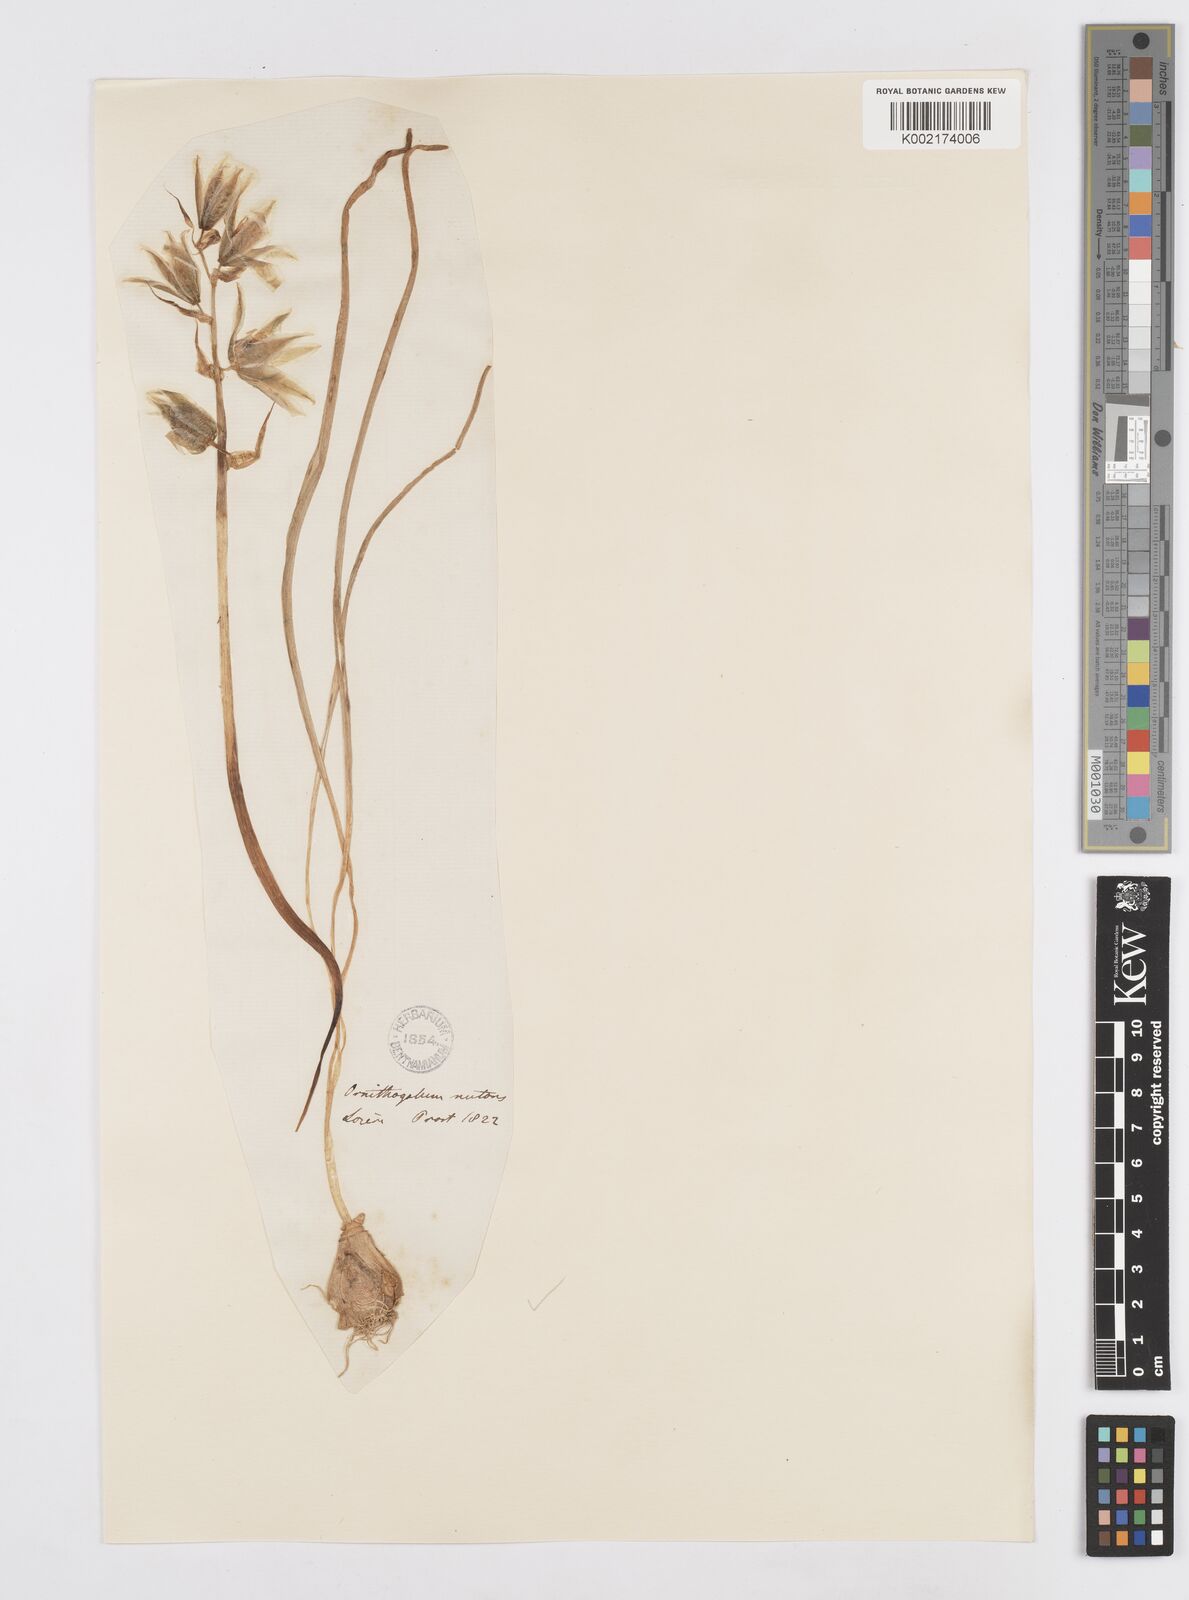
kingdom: Plantae
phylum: Tracheophyta
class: Liliopsida
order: Asparagales
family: Asparagaceae
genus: Ornithogalum
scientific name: Ornithogalum nutans
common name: Drooping star-of-bethlehem
